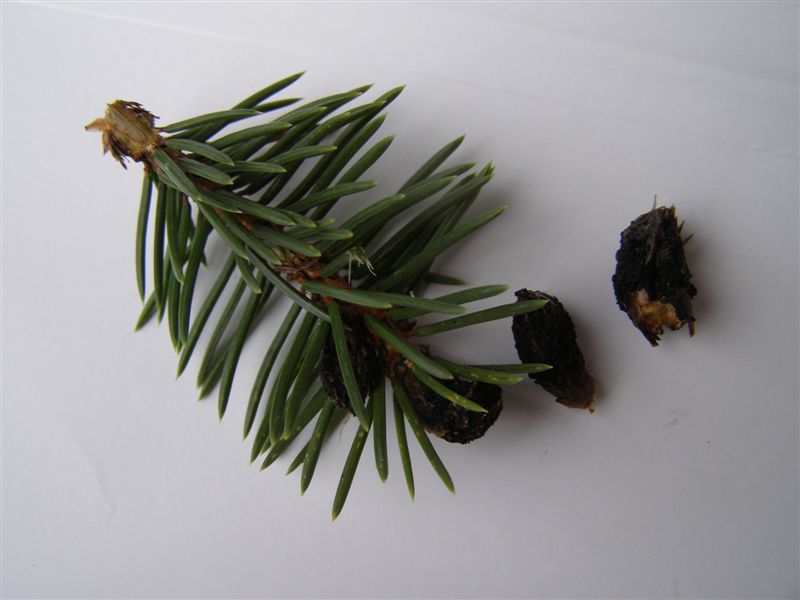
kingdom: Fungi
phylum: Ascomycota
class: Dothideomycetes
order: Pleosporales
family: Cucurbitariaceae
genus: Megaloseptoria
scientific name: Megaloseptoria mirabilis
